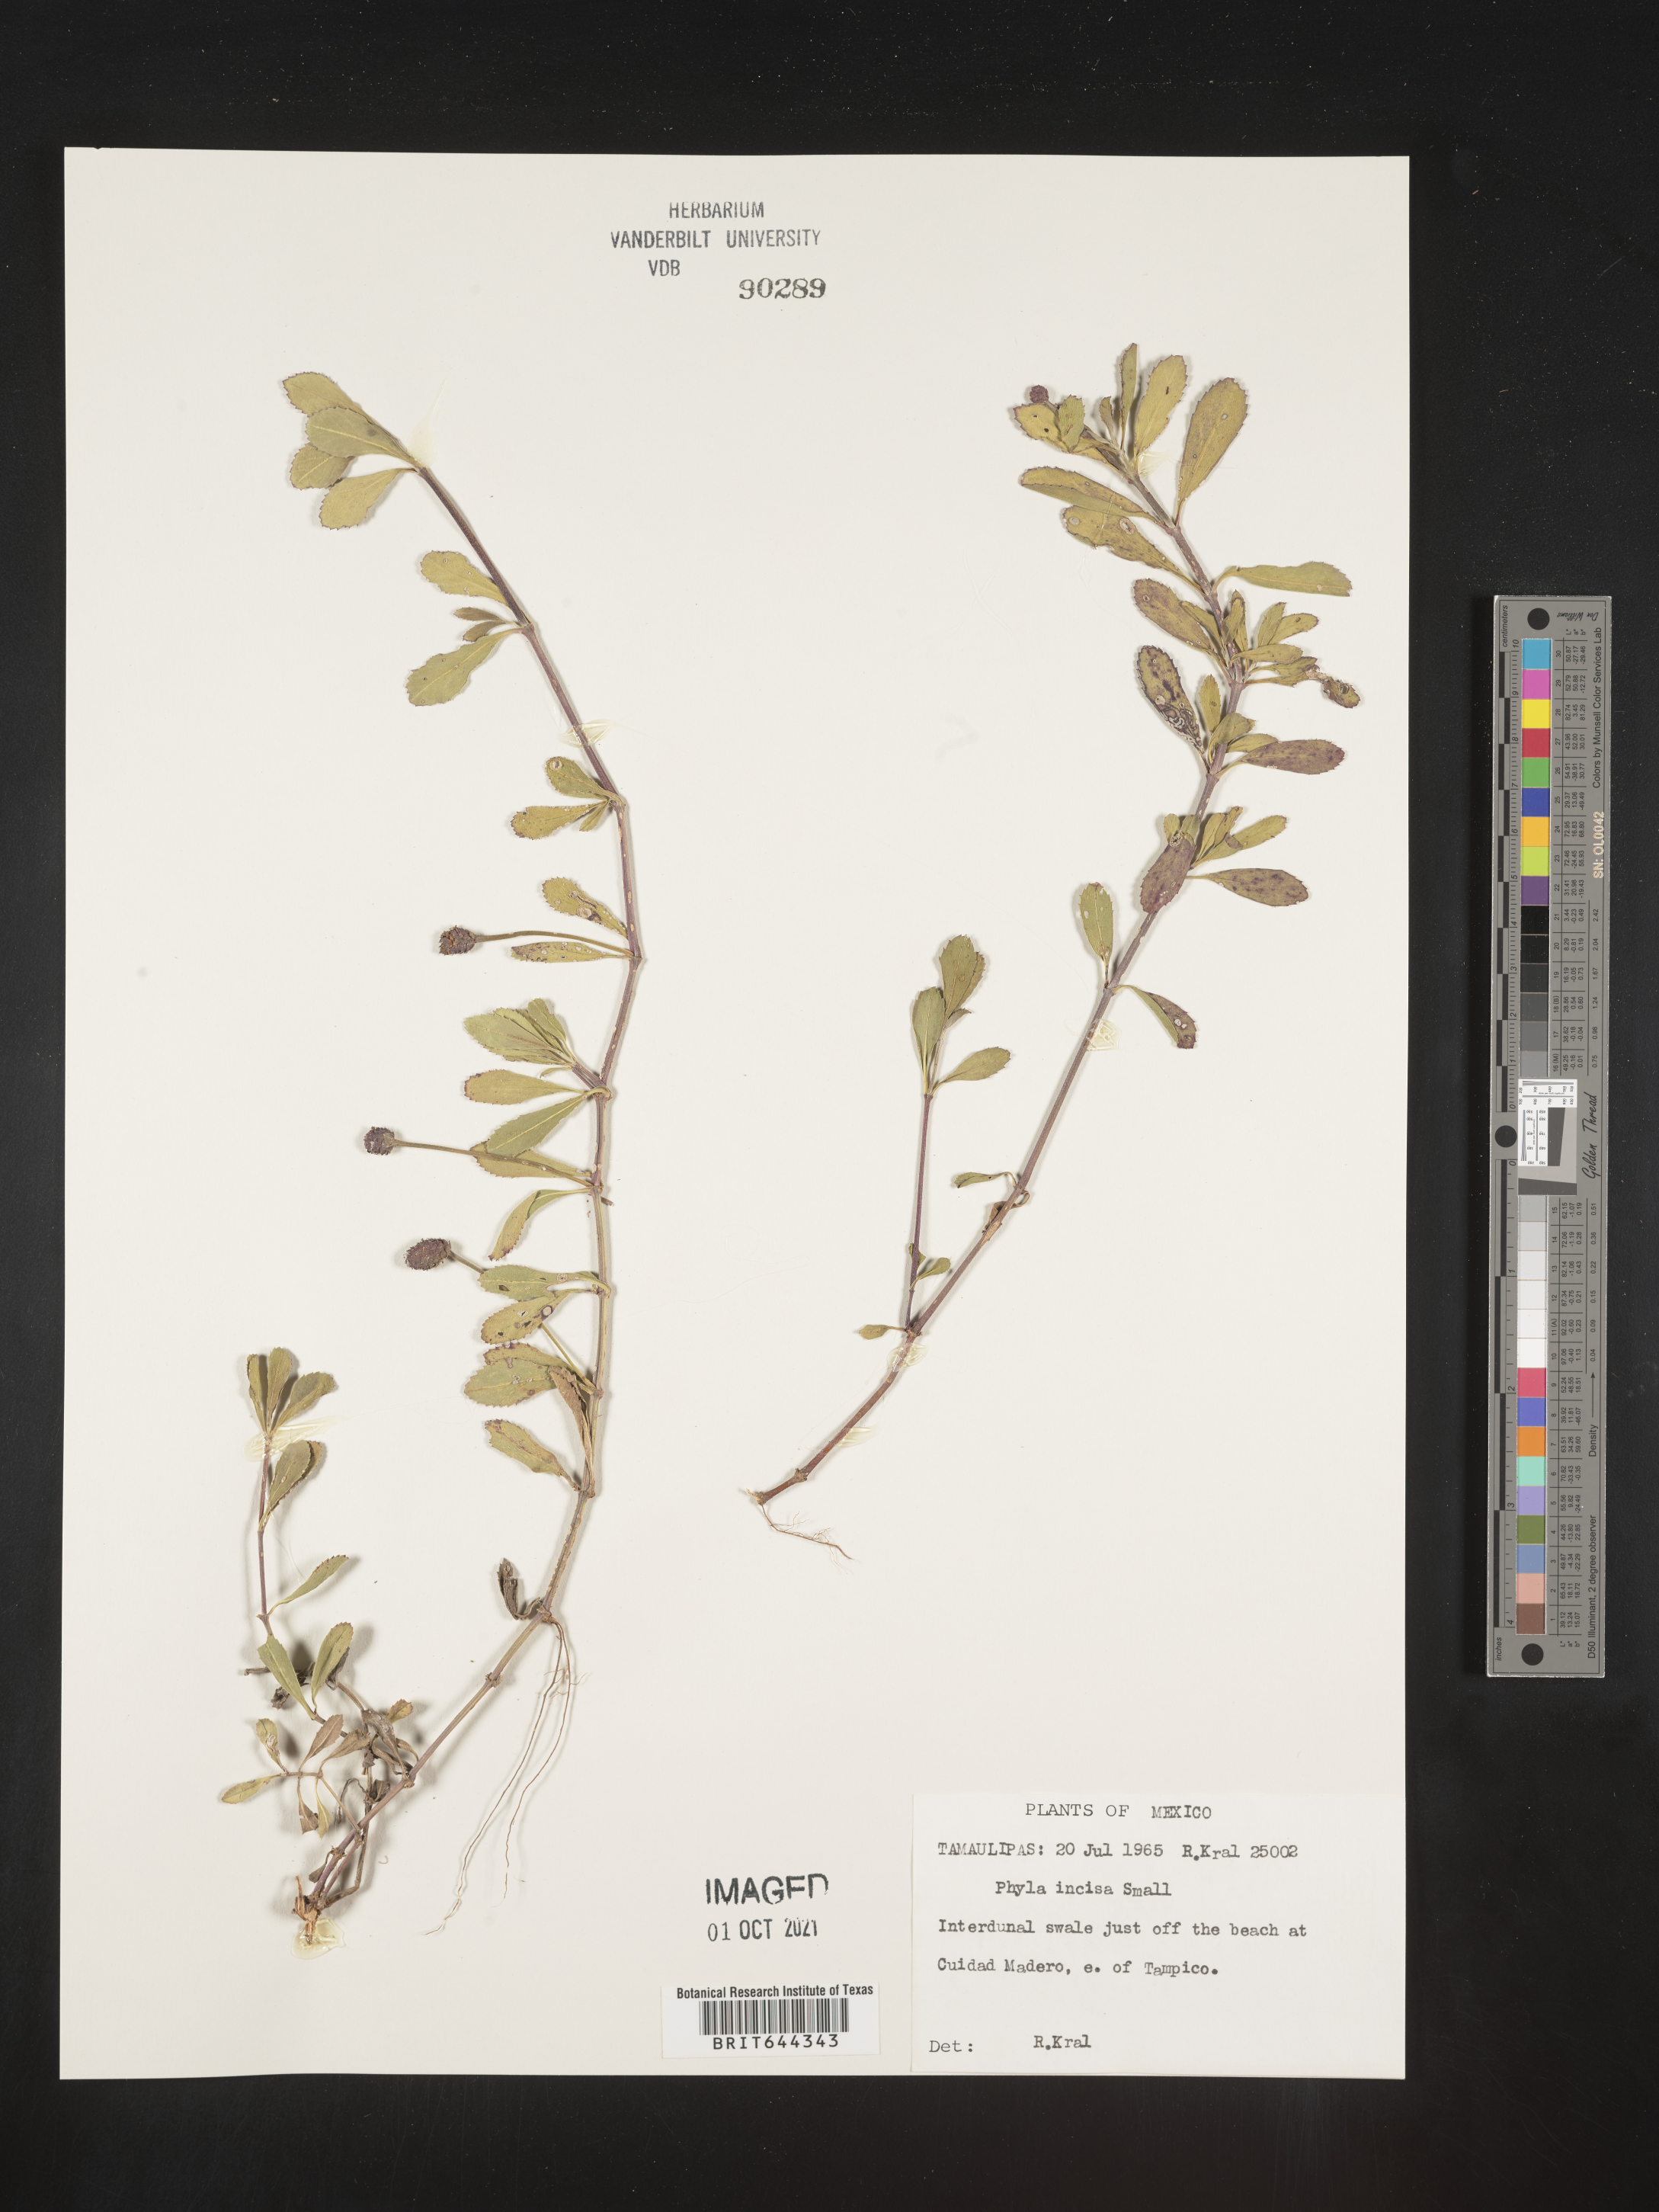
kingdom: Plantae
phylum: Tracheophyta
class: Magnoliopsida
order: Lamiales
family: Verbenaceae
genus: Phyla
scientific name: Phyla
